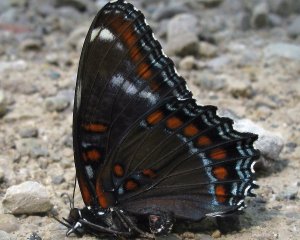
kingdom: Animalia
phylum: Arthropoda
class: Insecta
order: Lepidoptera
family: Nymphalidae
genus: Limenitis
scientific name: Limenitis astyanax
